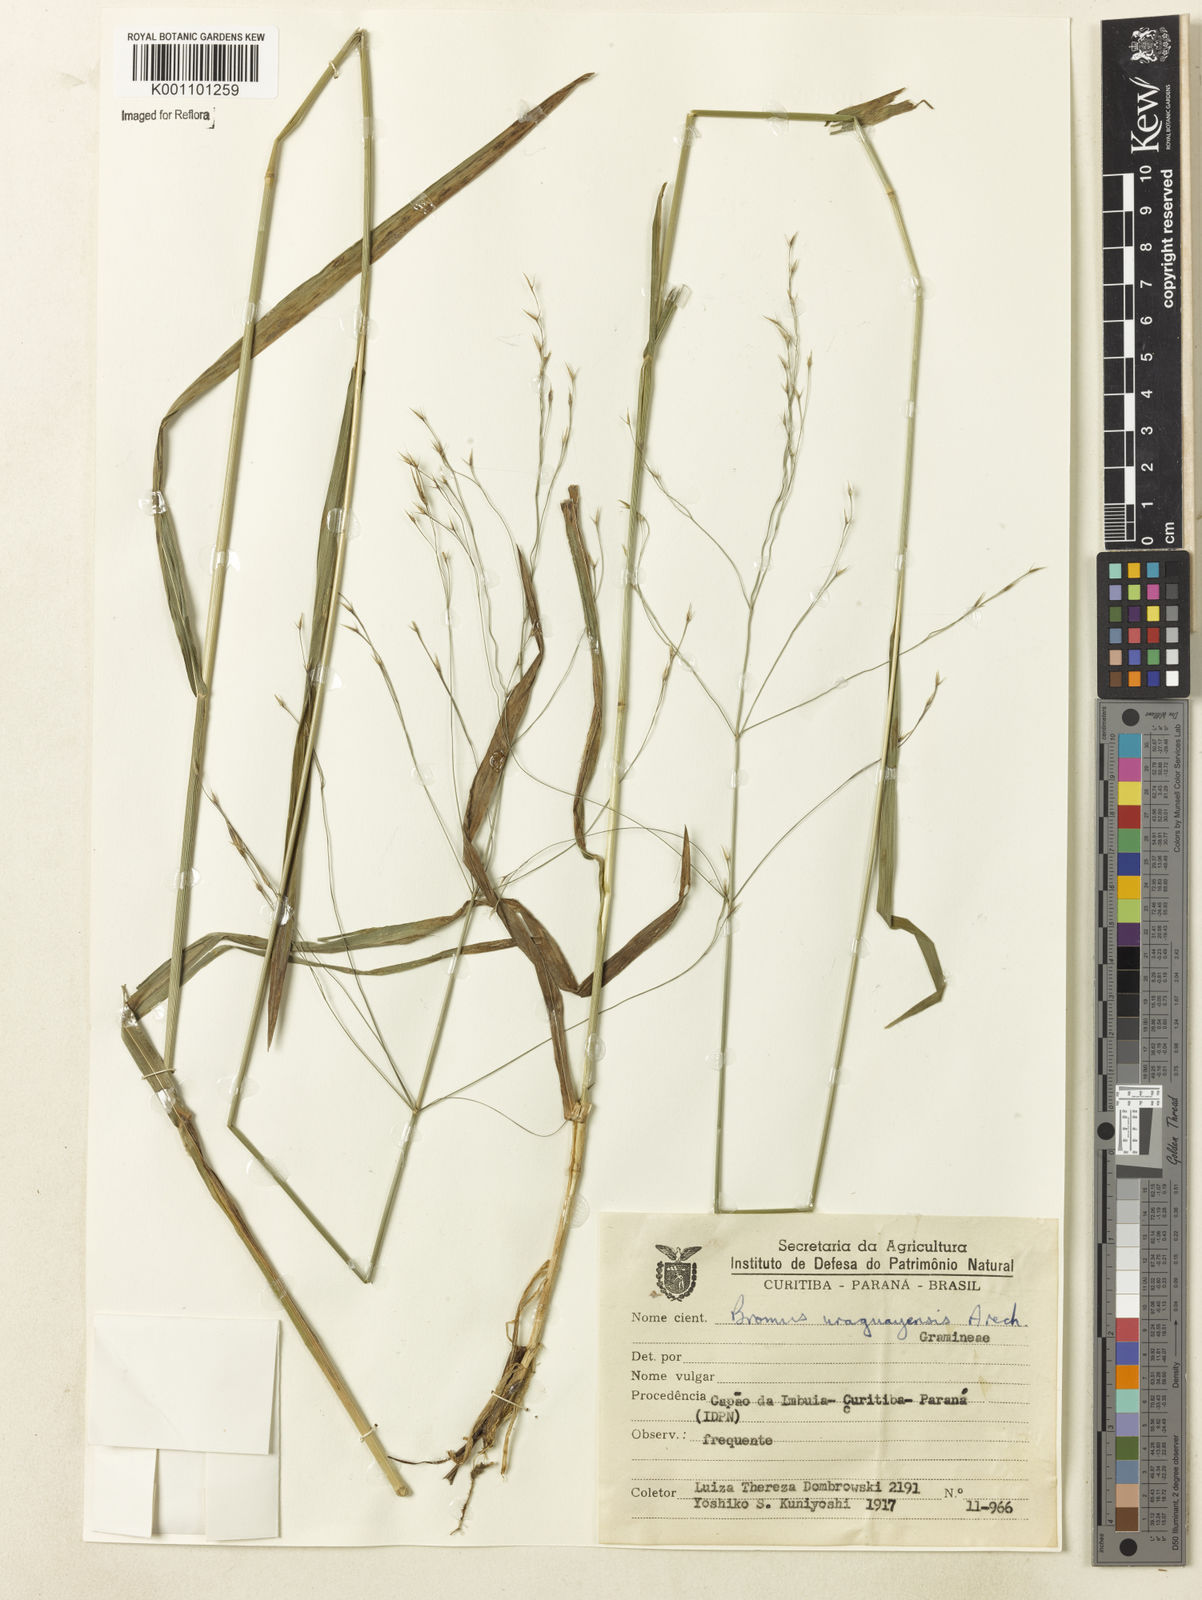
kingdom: Plantae
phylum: Tracheophyta
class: Liliopsida
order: Poales
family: Poaceae
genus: Bromus
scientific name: Bromus
